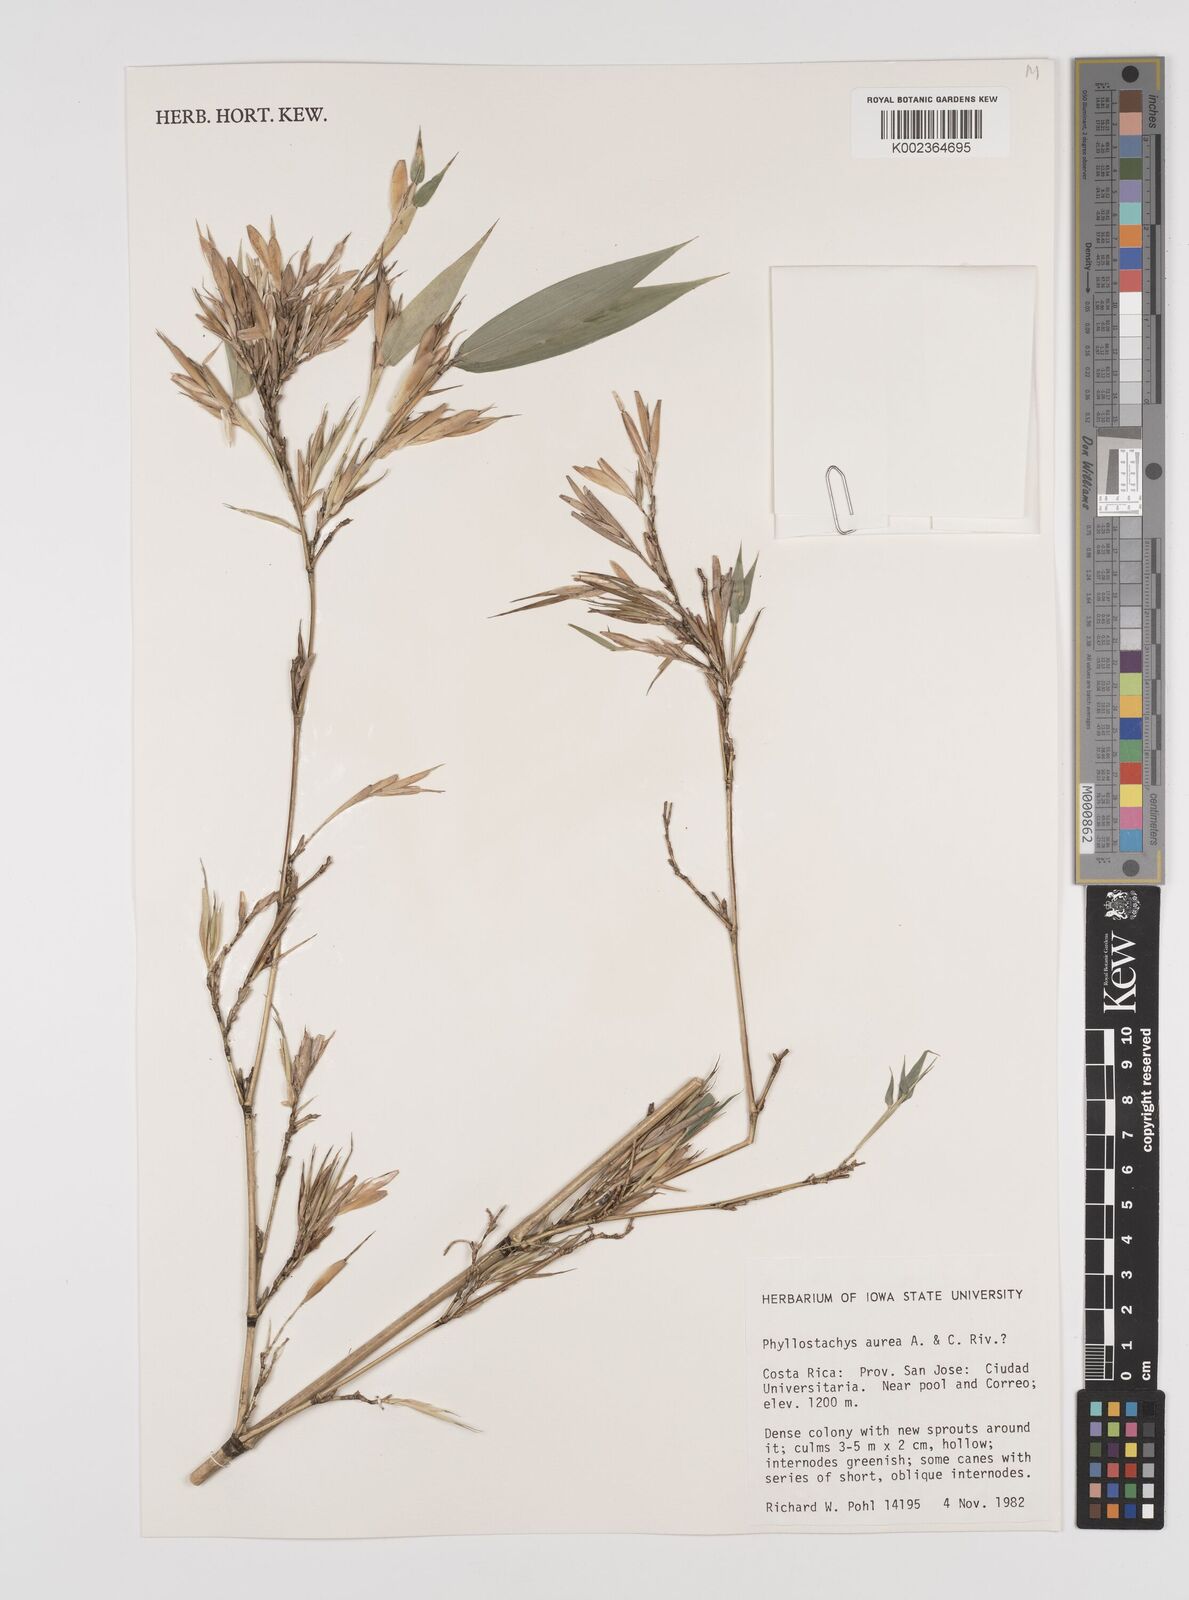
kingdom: Plantae
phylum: Tracheophyta
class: Liliopsida
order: Poales
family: Poaceae
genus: Phyllostachys
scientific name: Phyllostachys aurea
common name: Golden bamboo
